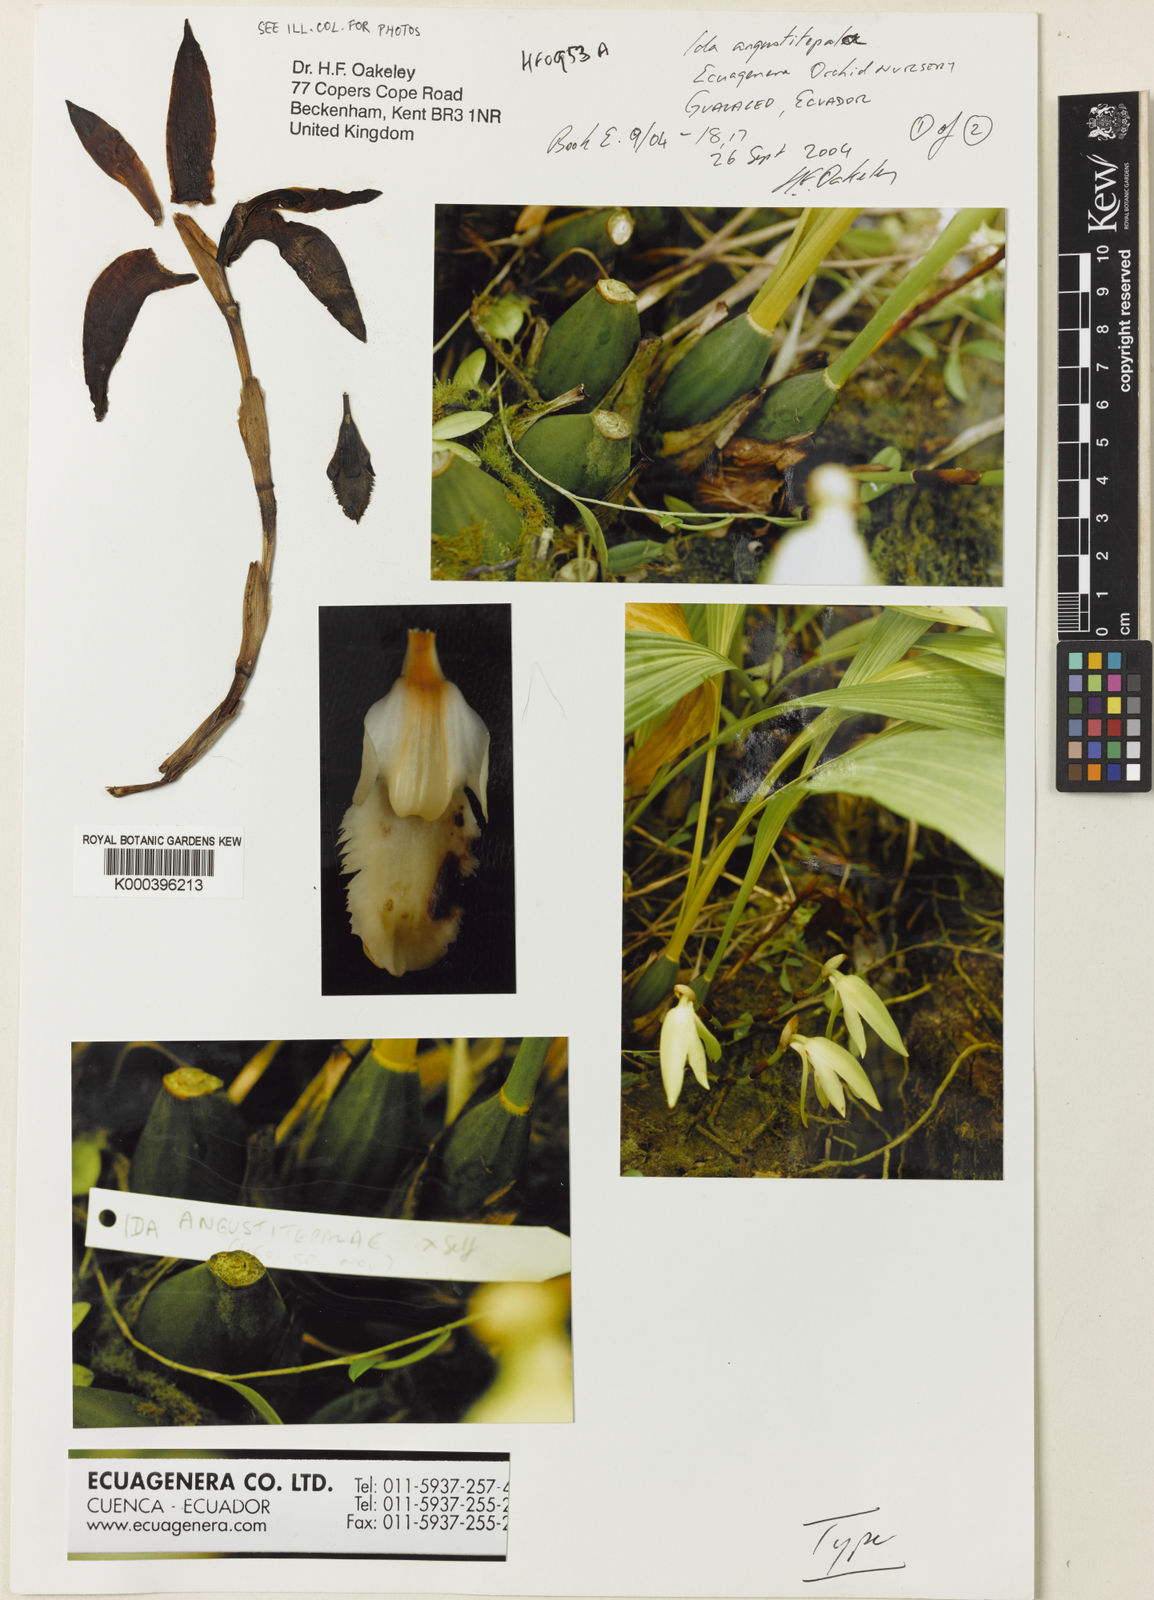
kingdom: Plantae
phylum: Tracheophyta
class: Liliopsida
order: Asparagales
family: Orchidaceae
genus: Ida
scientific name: Ida angustitepala
